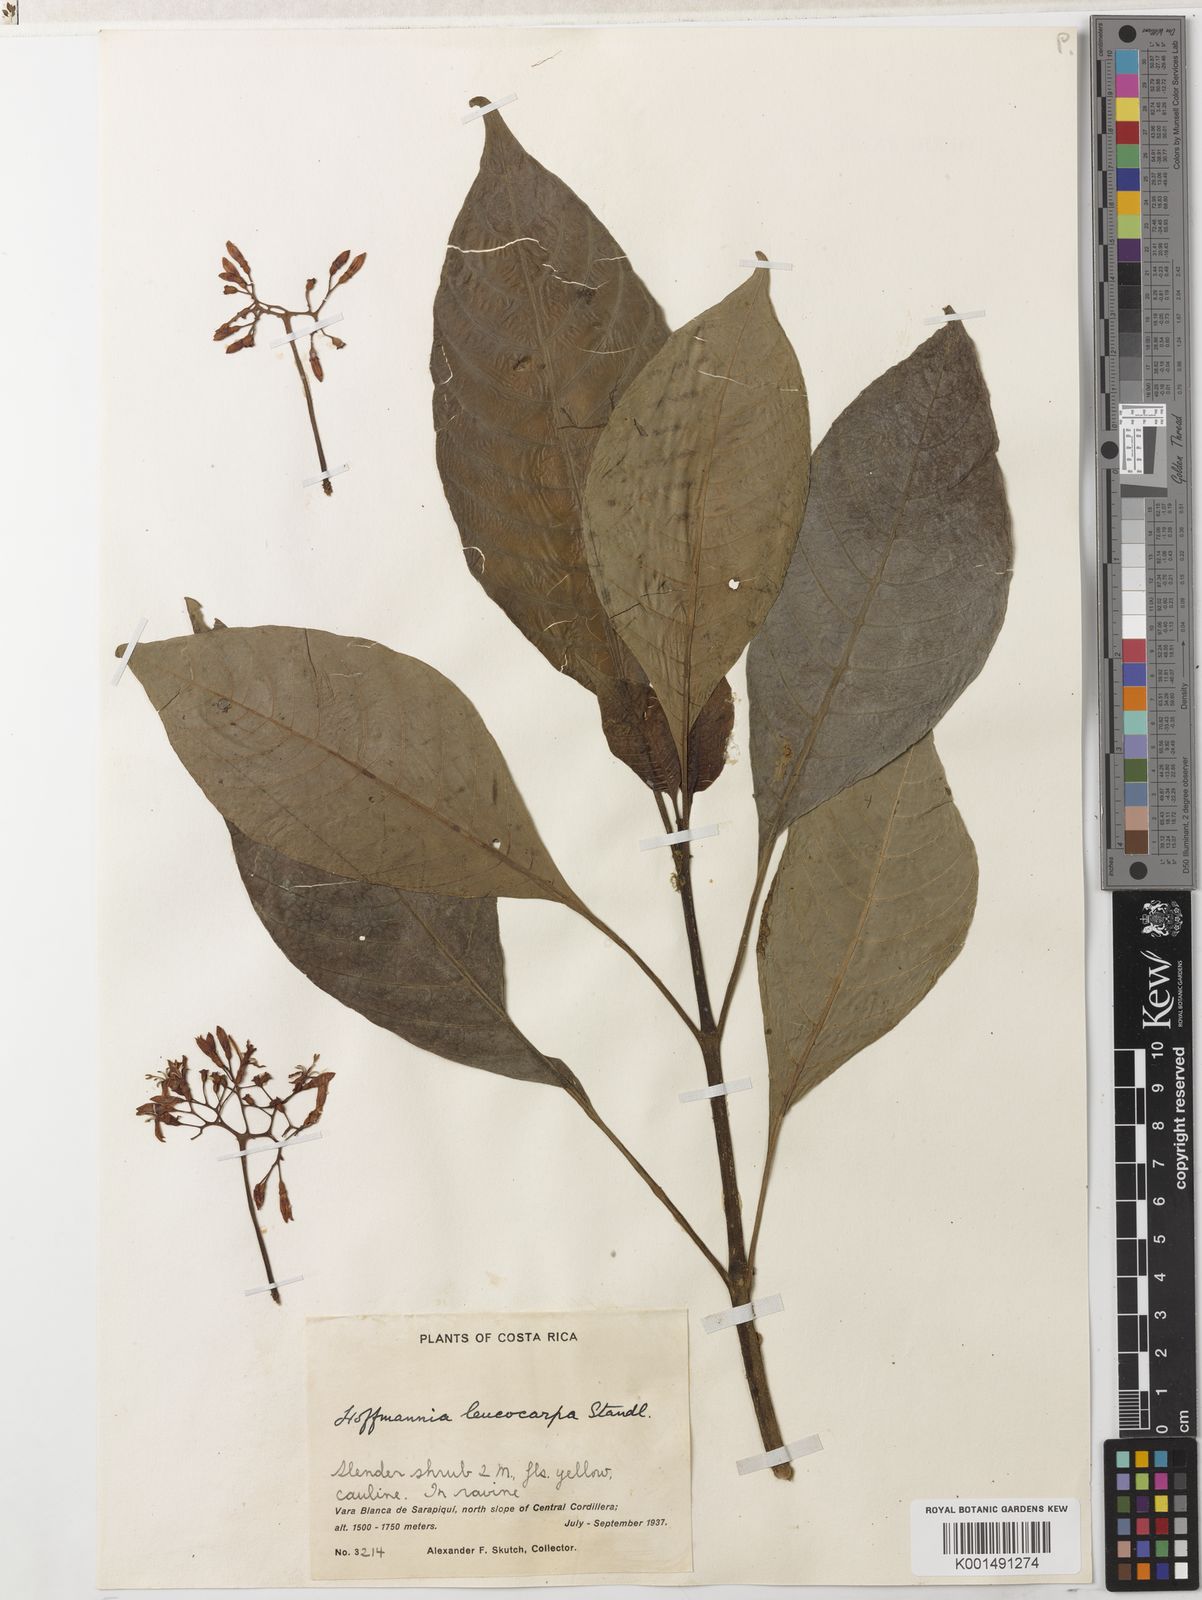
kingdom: Plantae
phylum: Tracheophyta
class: Magnoliopsida
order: Gentianales
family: Rubiaceae
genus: Hoffmannia
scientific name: Hoffmannia pittieri
